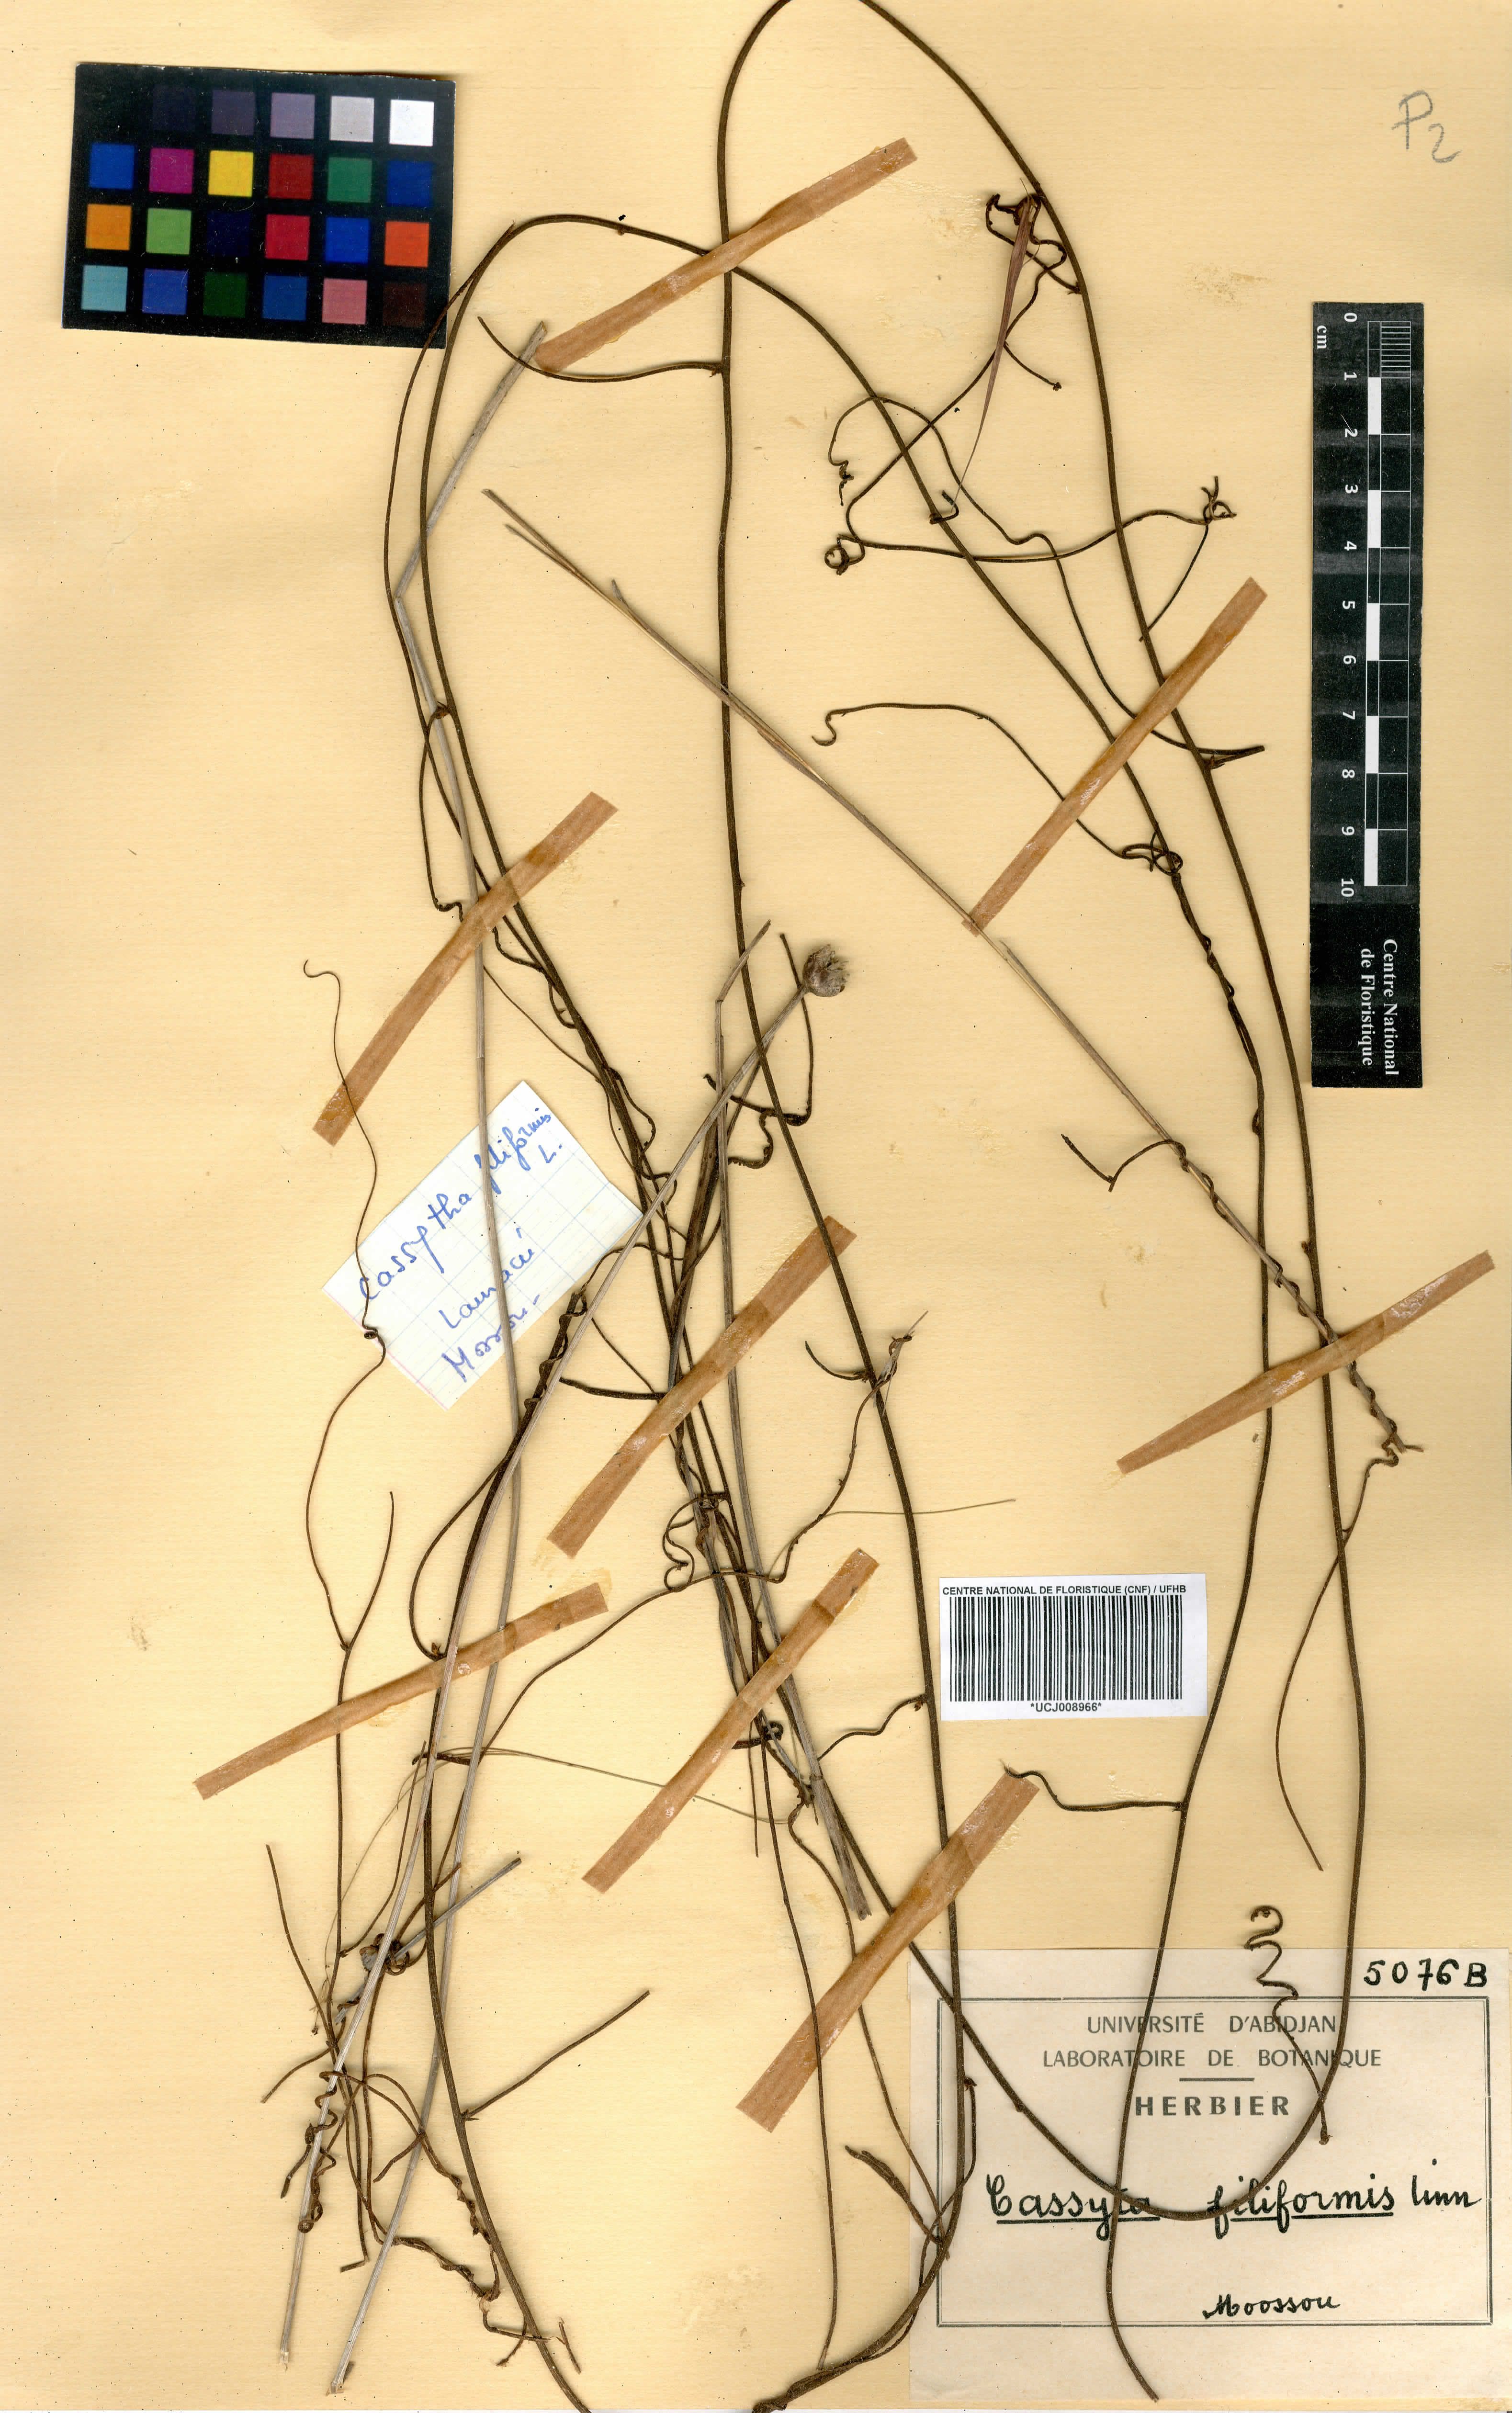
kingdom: Plantae
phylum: Tracheophyta
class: Magnoliopsida
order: Laurales
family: Lauraceae
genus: Cassytha
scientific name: Cassytha filiformis
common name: Dodder-laurel
